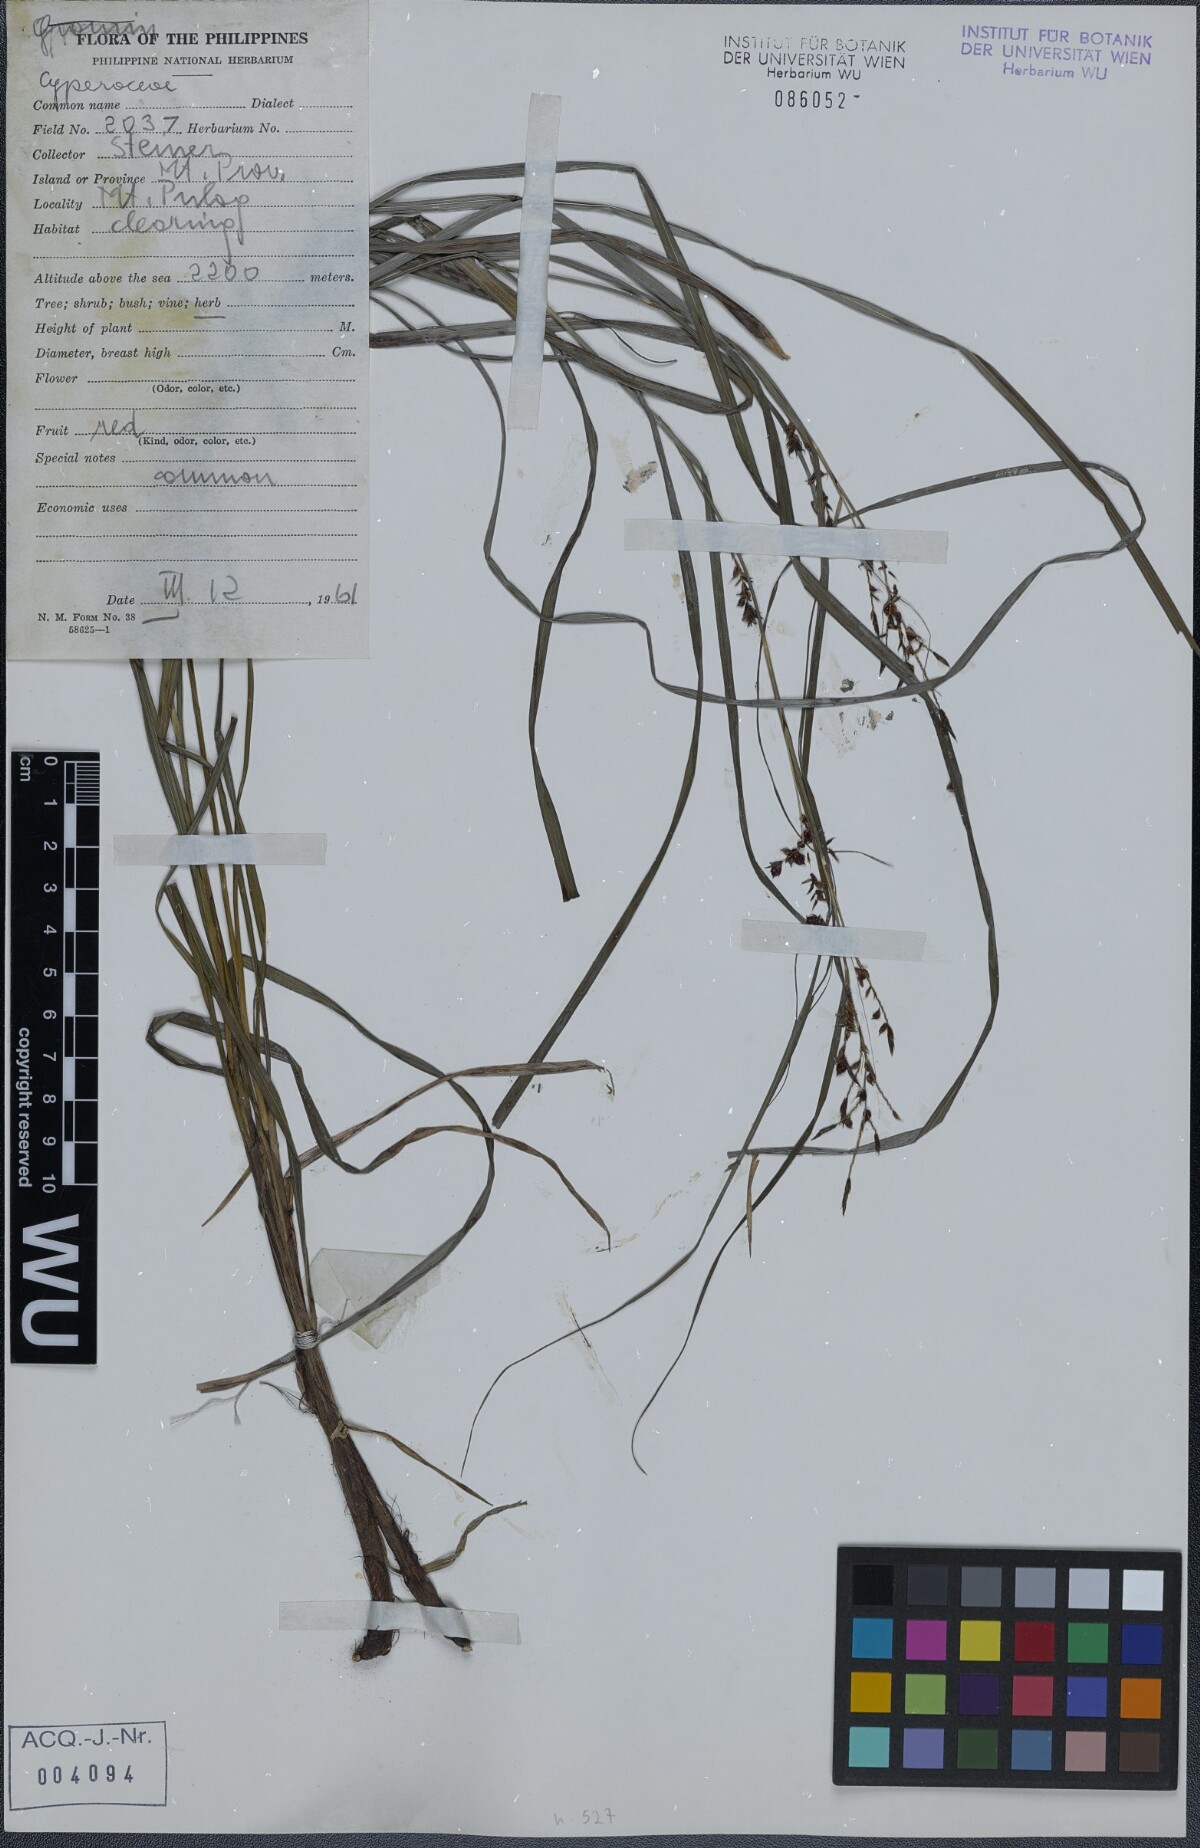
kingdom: Plantae
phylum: Tracheophyta
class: Liliopsida
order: Poales
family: Cyperaceae
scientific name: Cyperaceae
